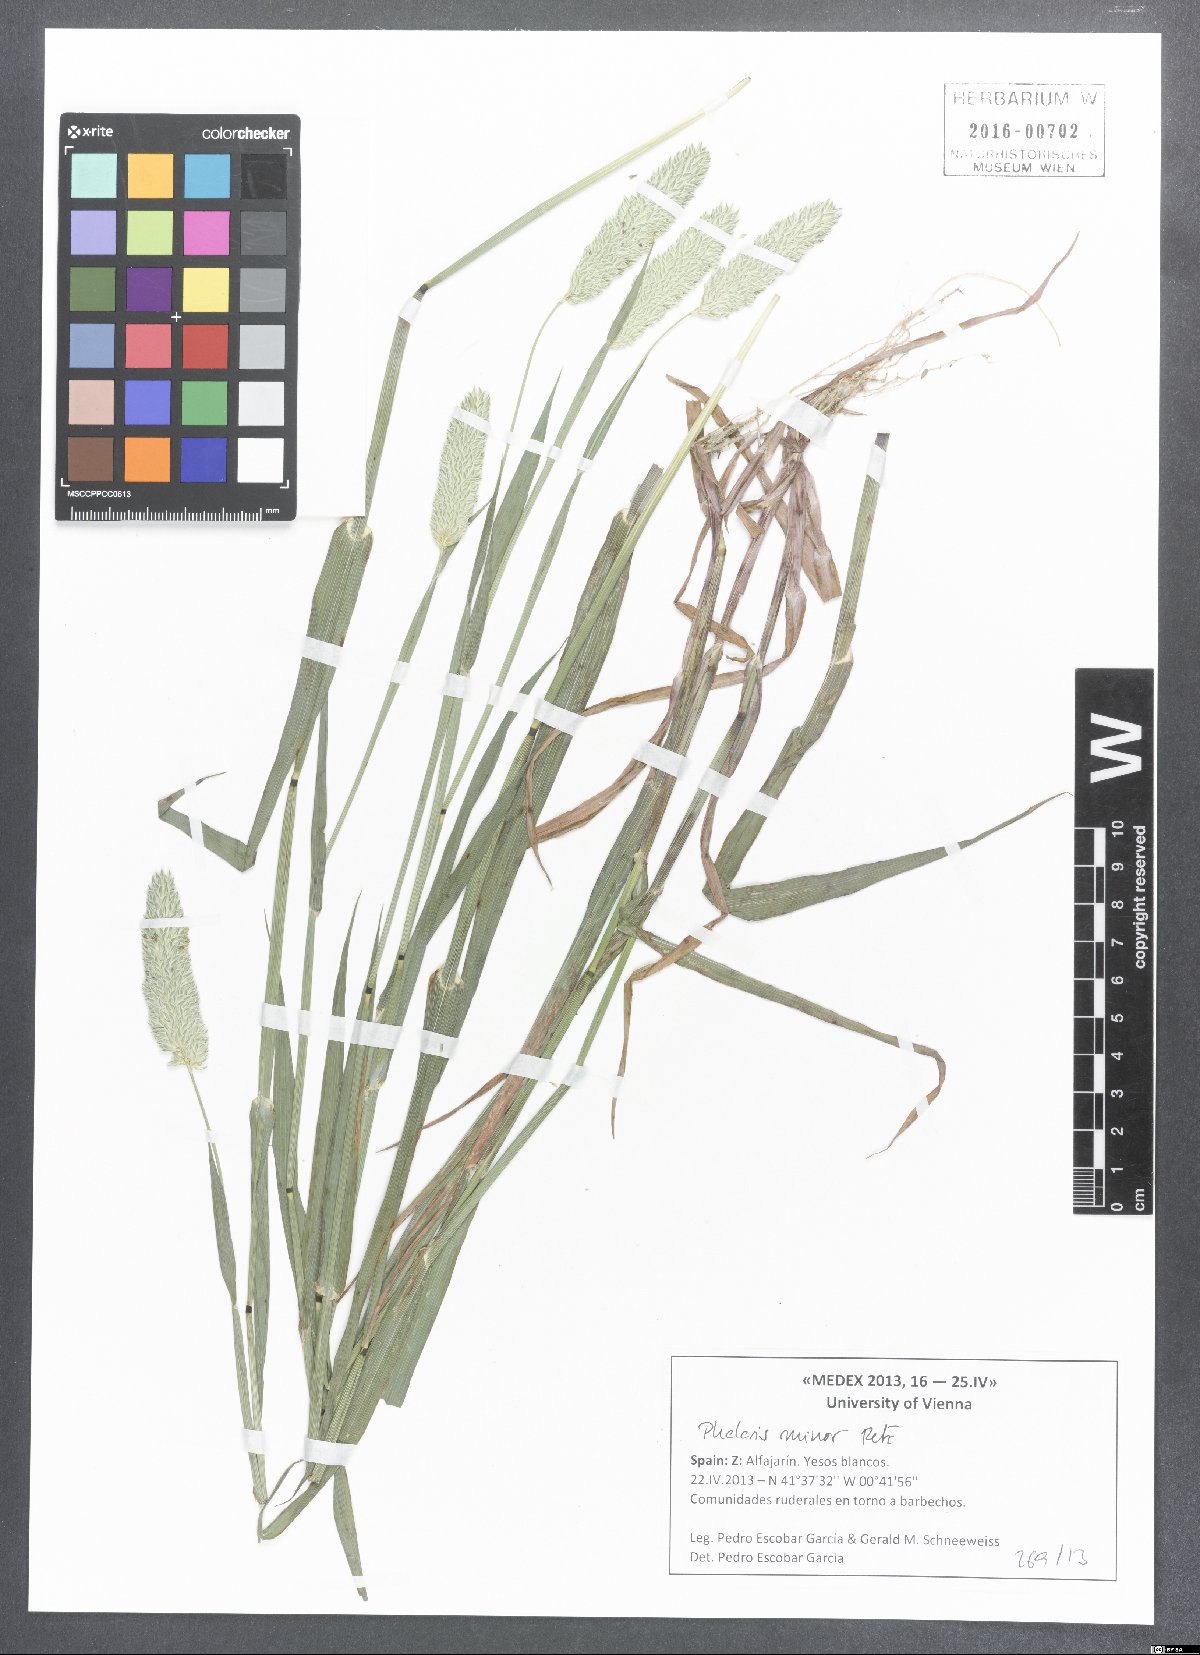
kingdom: Plantae
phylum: Tracheophyta
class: Liliopsida
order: Poales
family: Poaceae
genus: Phalaris
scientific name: Phalaris minor
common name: Littleseed canarygrass
